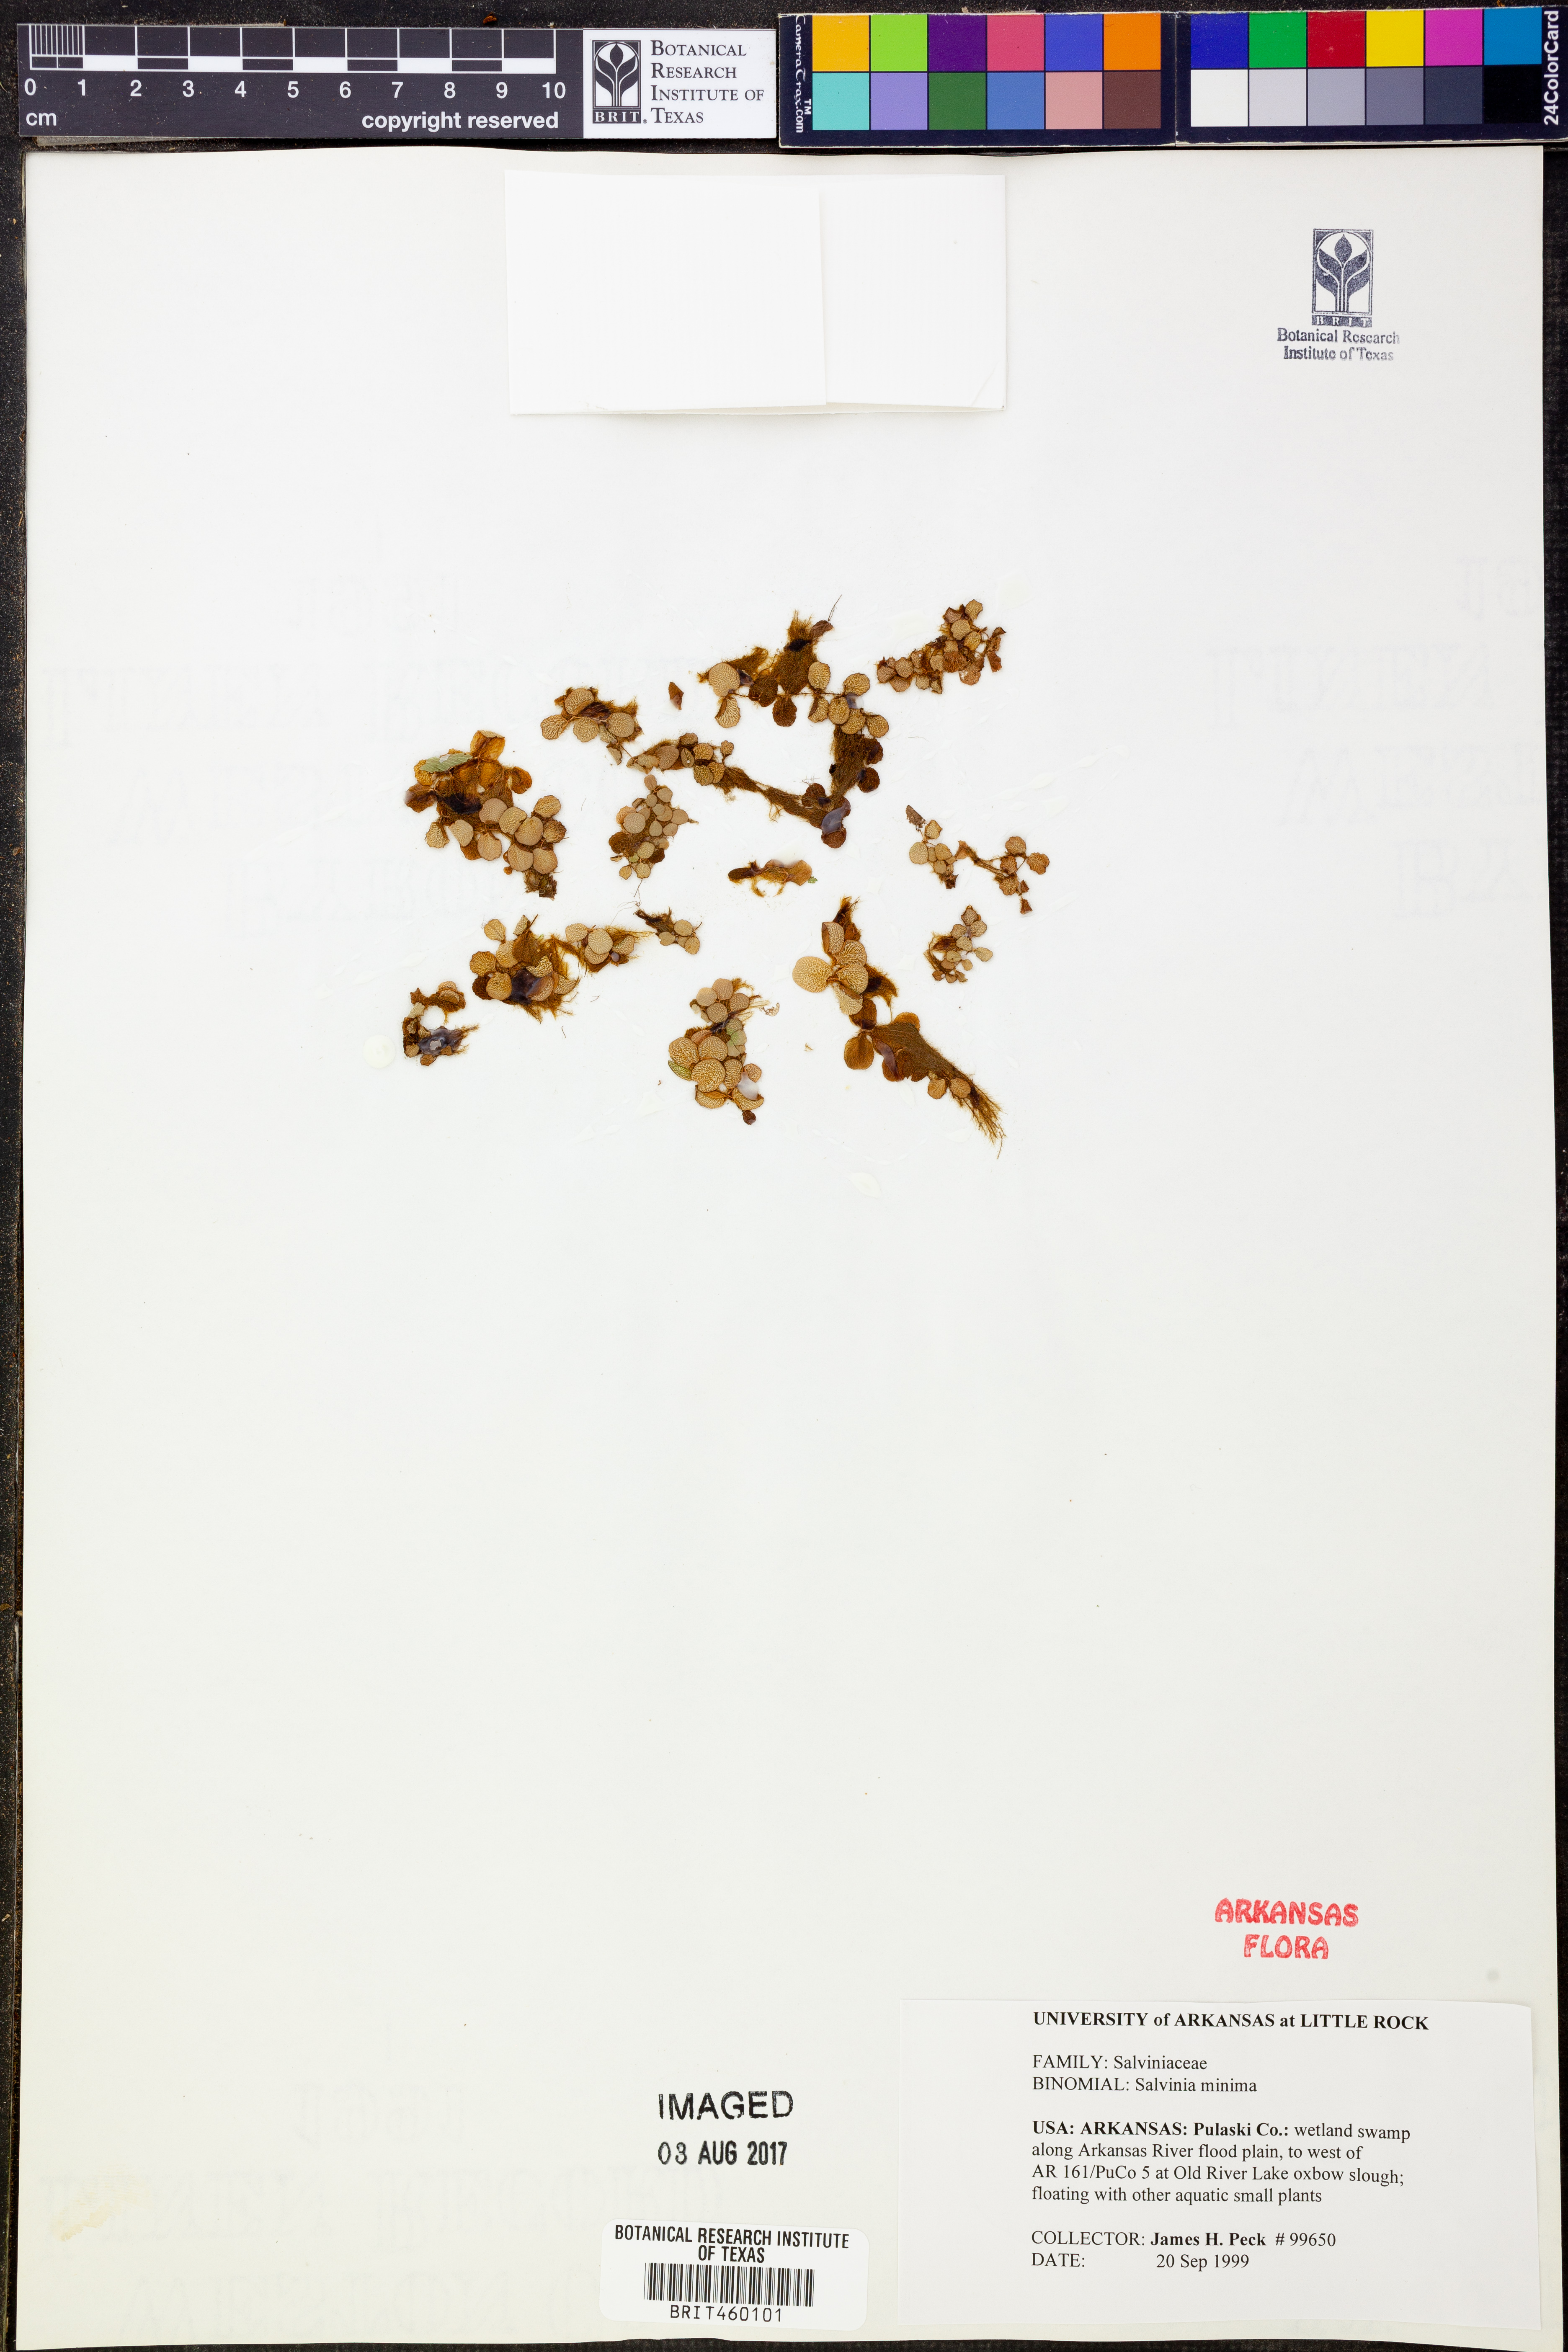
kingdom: Plantae
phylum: Tracheophyta
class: Polypodiopsida
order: Salviniales
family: Salviniaceae
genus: Salvinia
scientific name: Salvinia minima
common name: Water spangles
